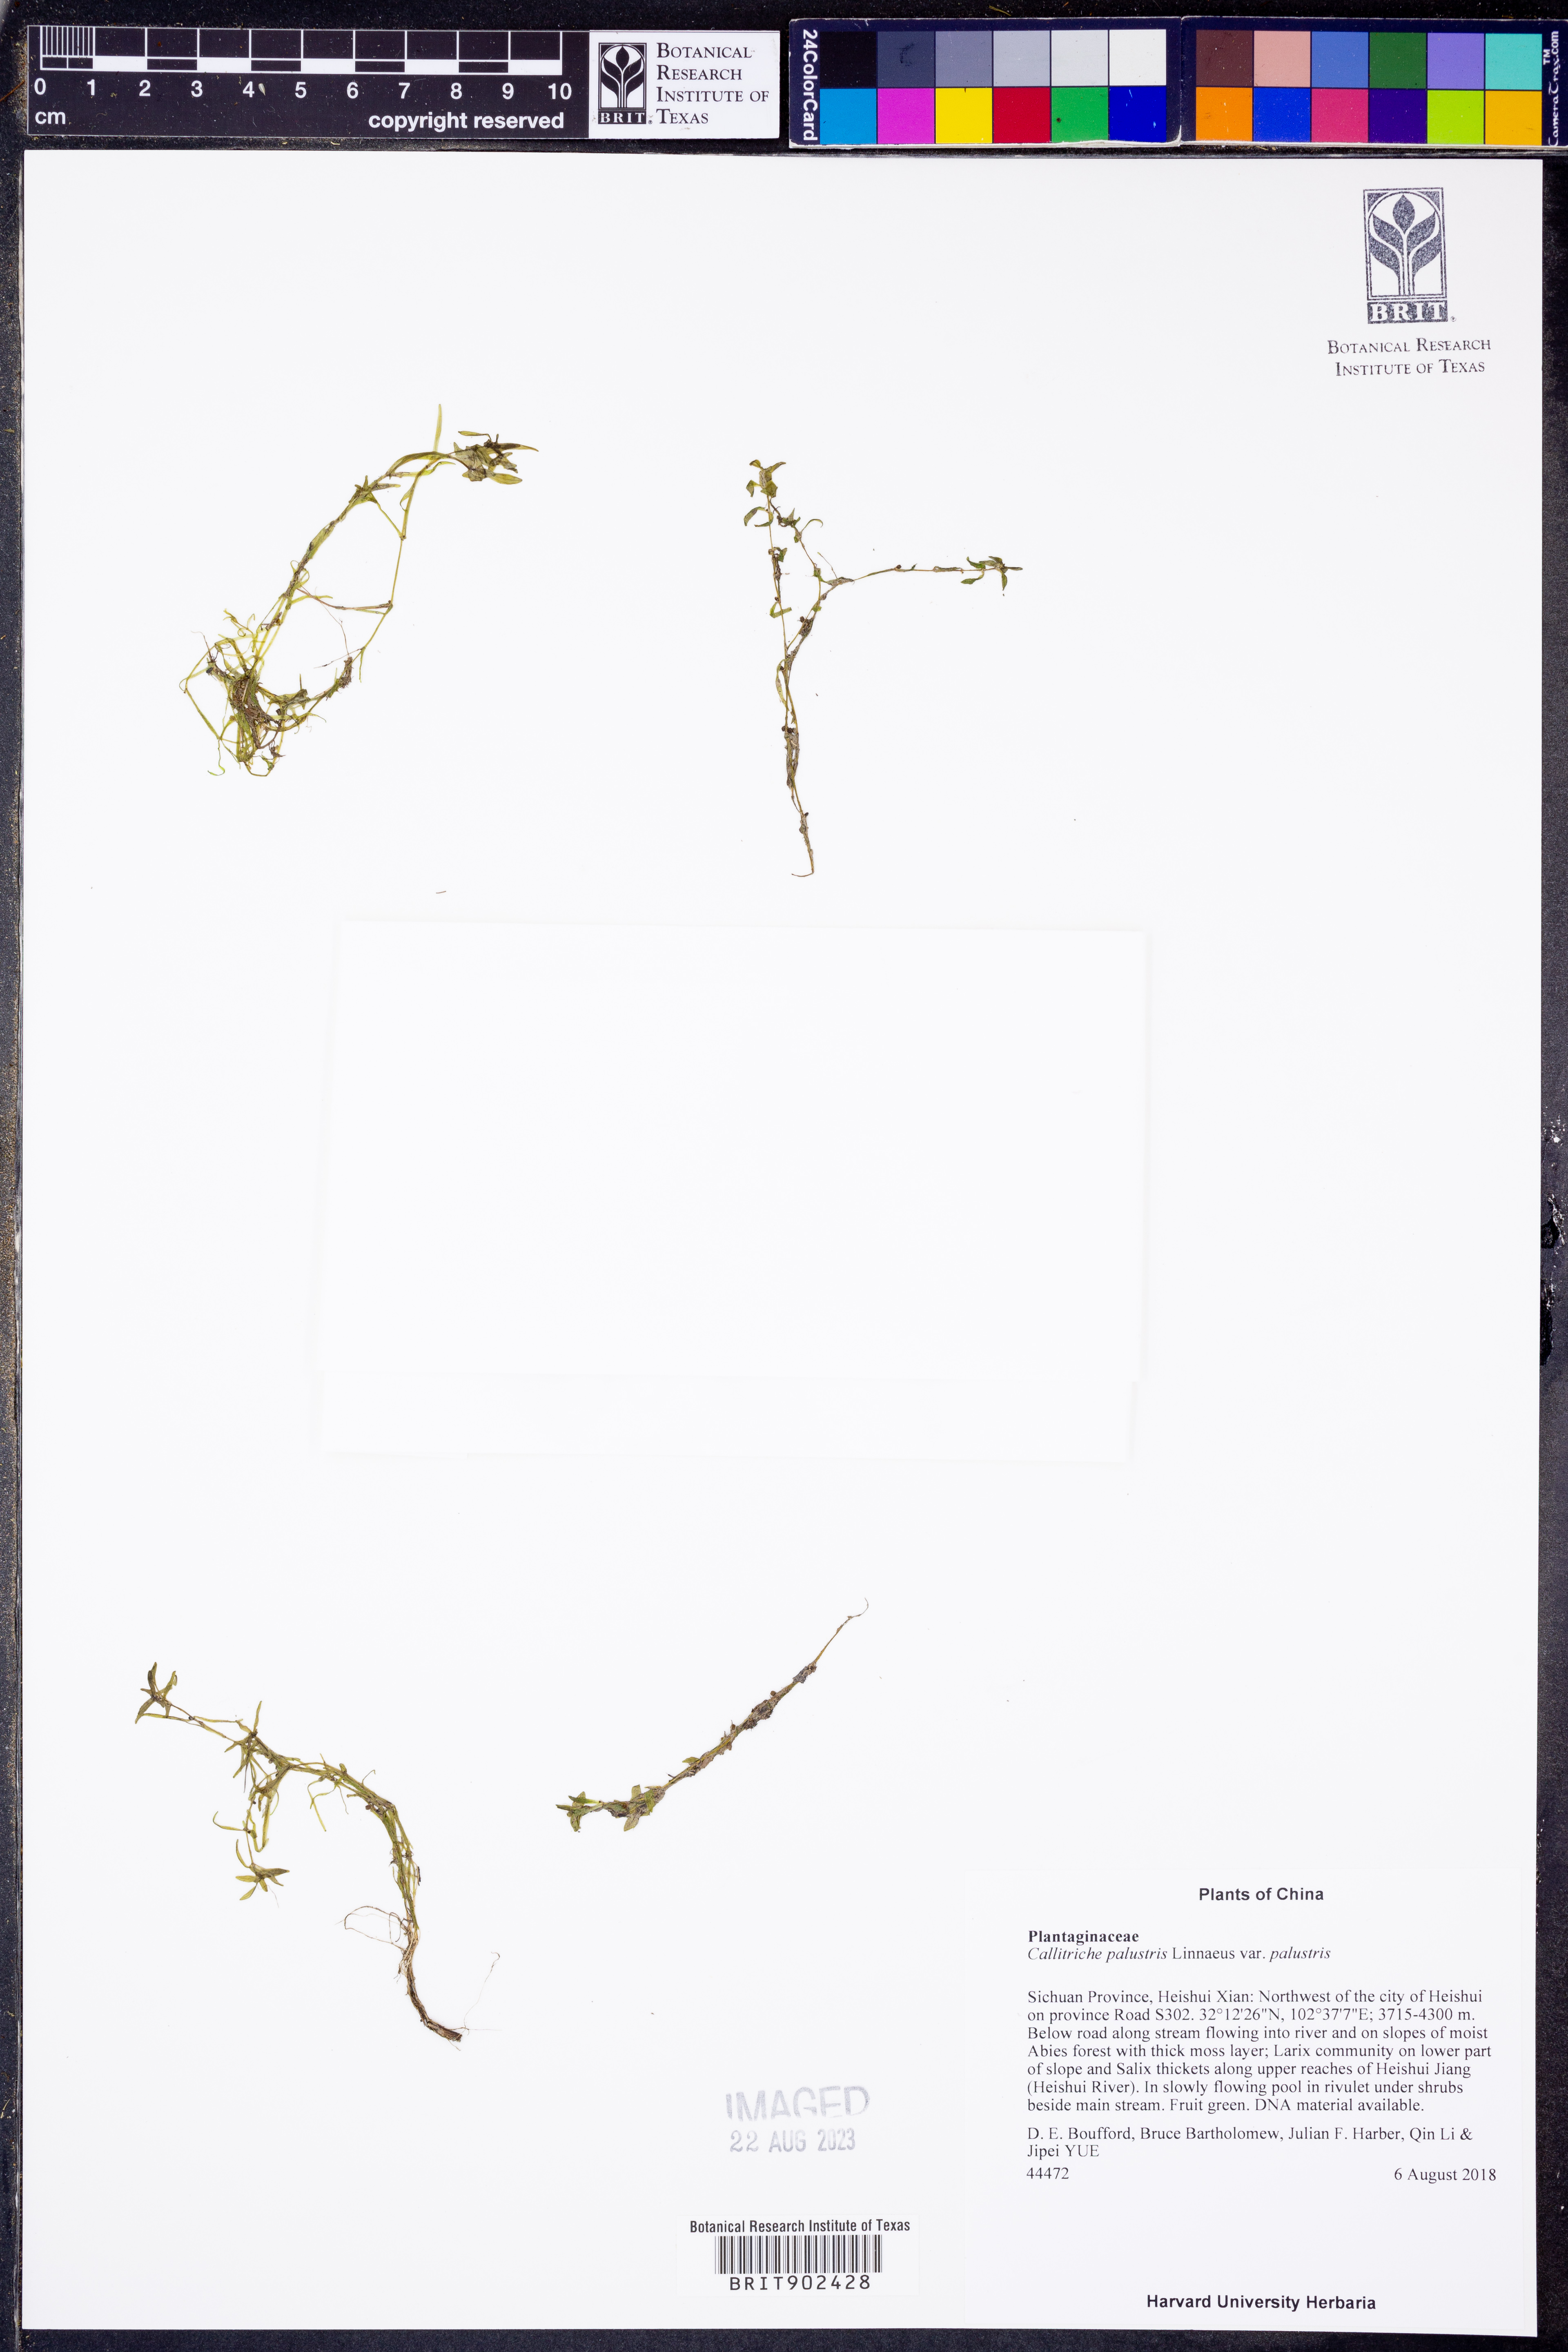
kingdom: Plantae
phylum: Tracheophyta
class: Magnoliopsida
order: Lamiales
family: Plantaginaceae
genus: Callitriche
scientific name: Callitriche palustris
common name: Spring water-starwort
